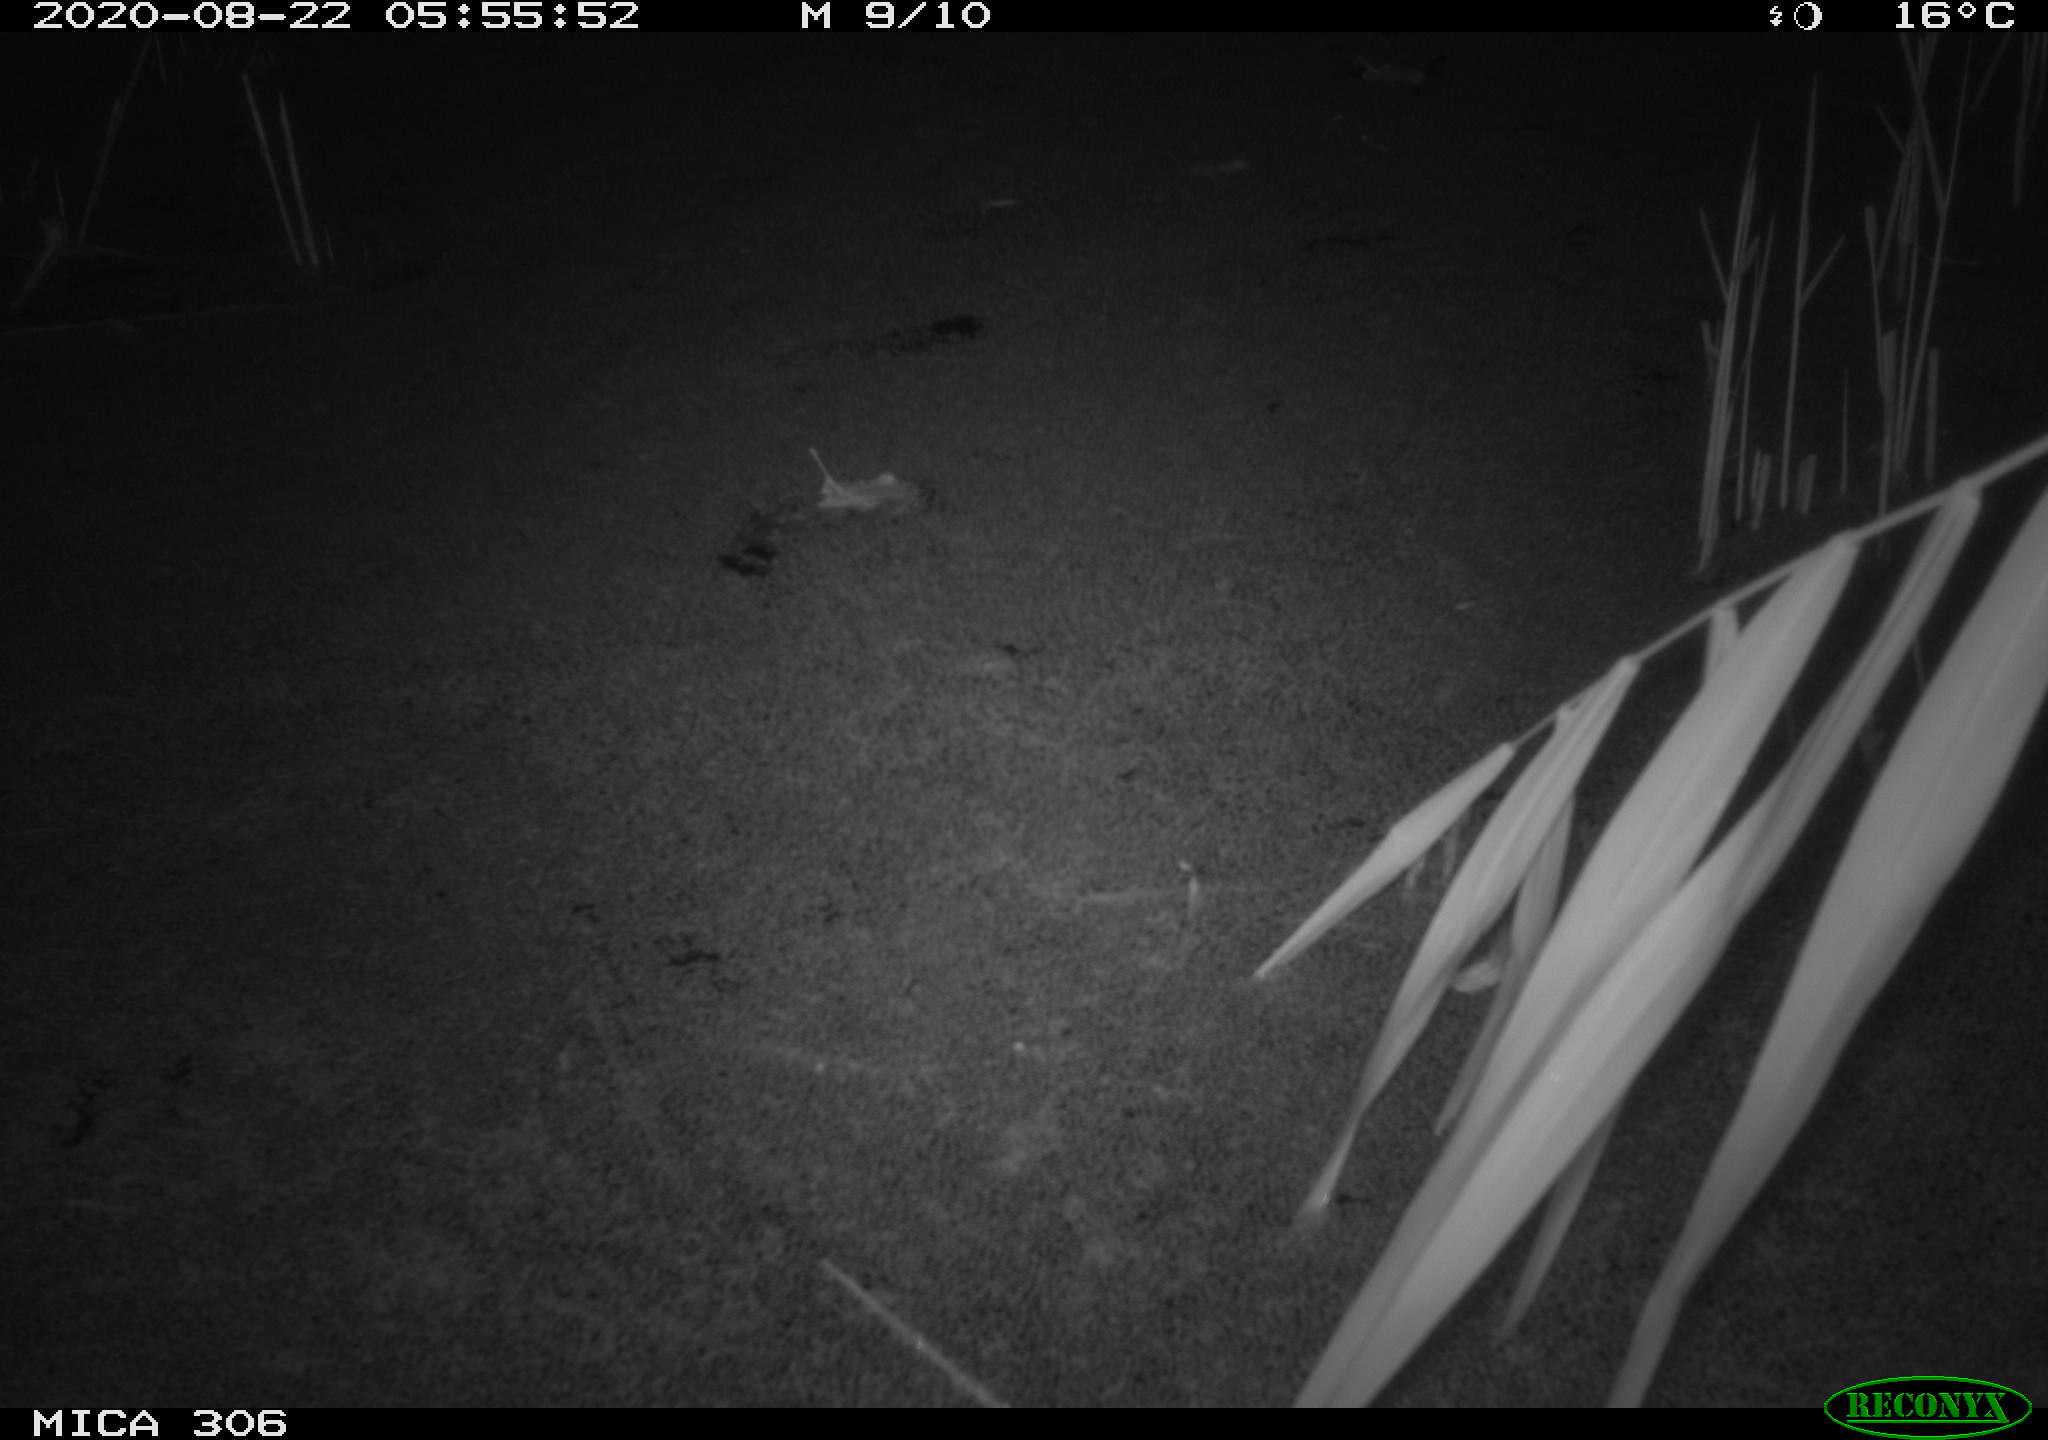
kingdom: Animalia
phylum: Chordata
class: Mammalia
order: Rodentia
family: Muridae
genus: Rattus
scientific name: Rattus norvegicus
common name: Brown rat
